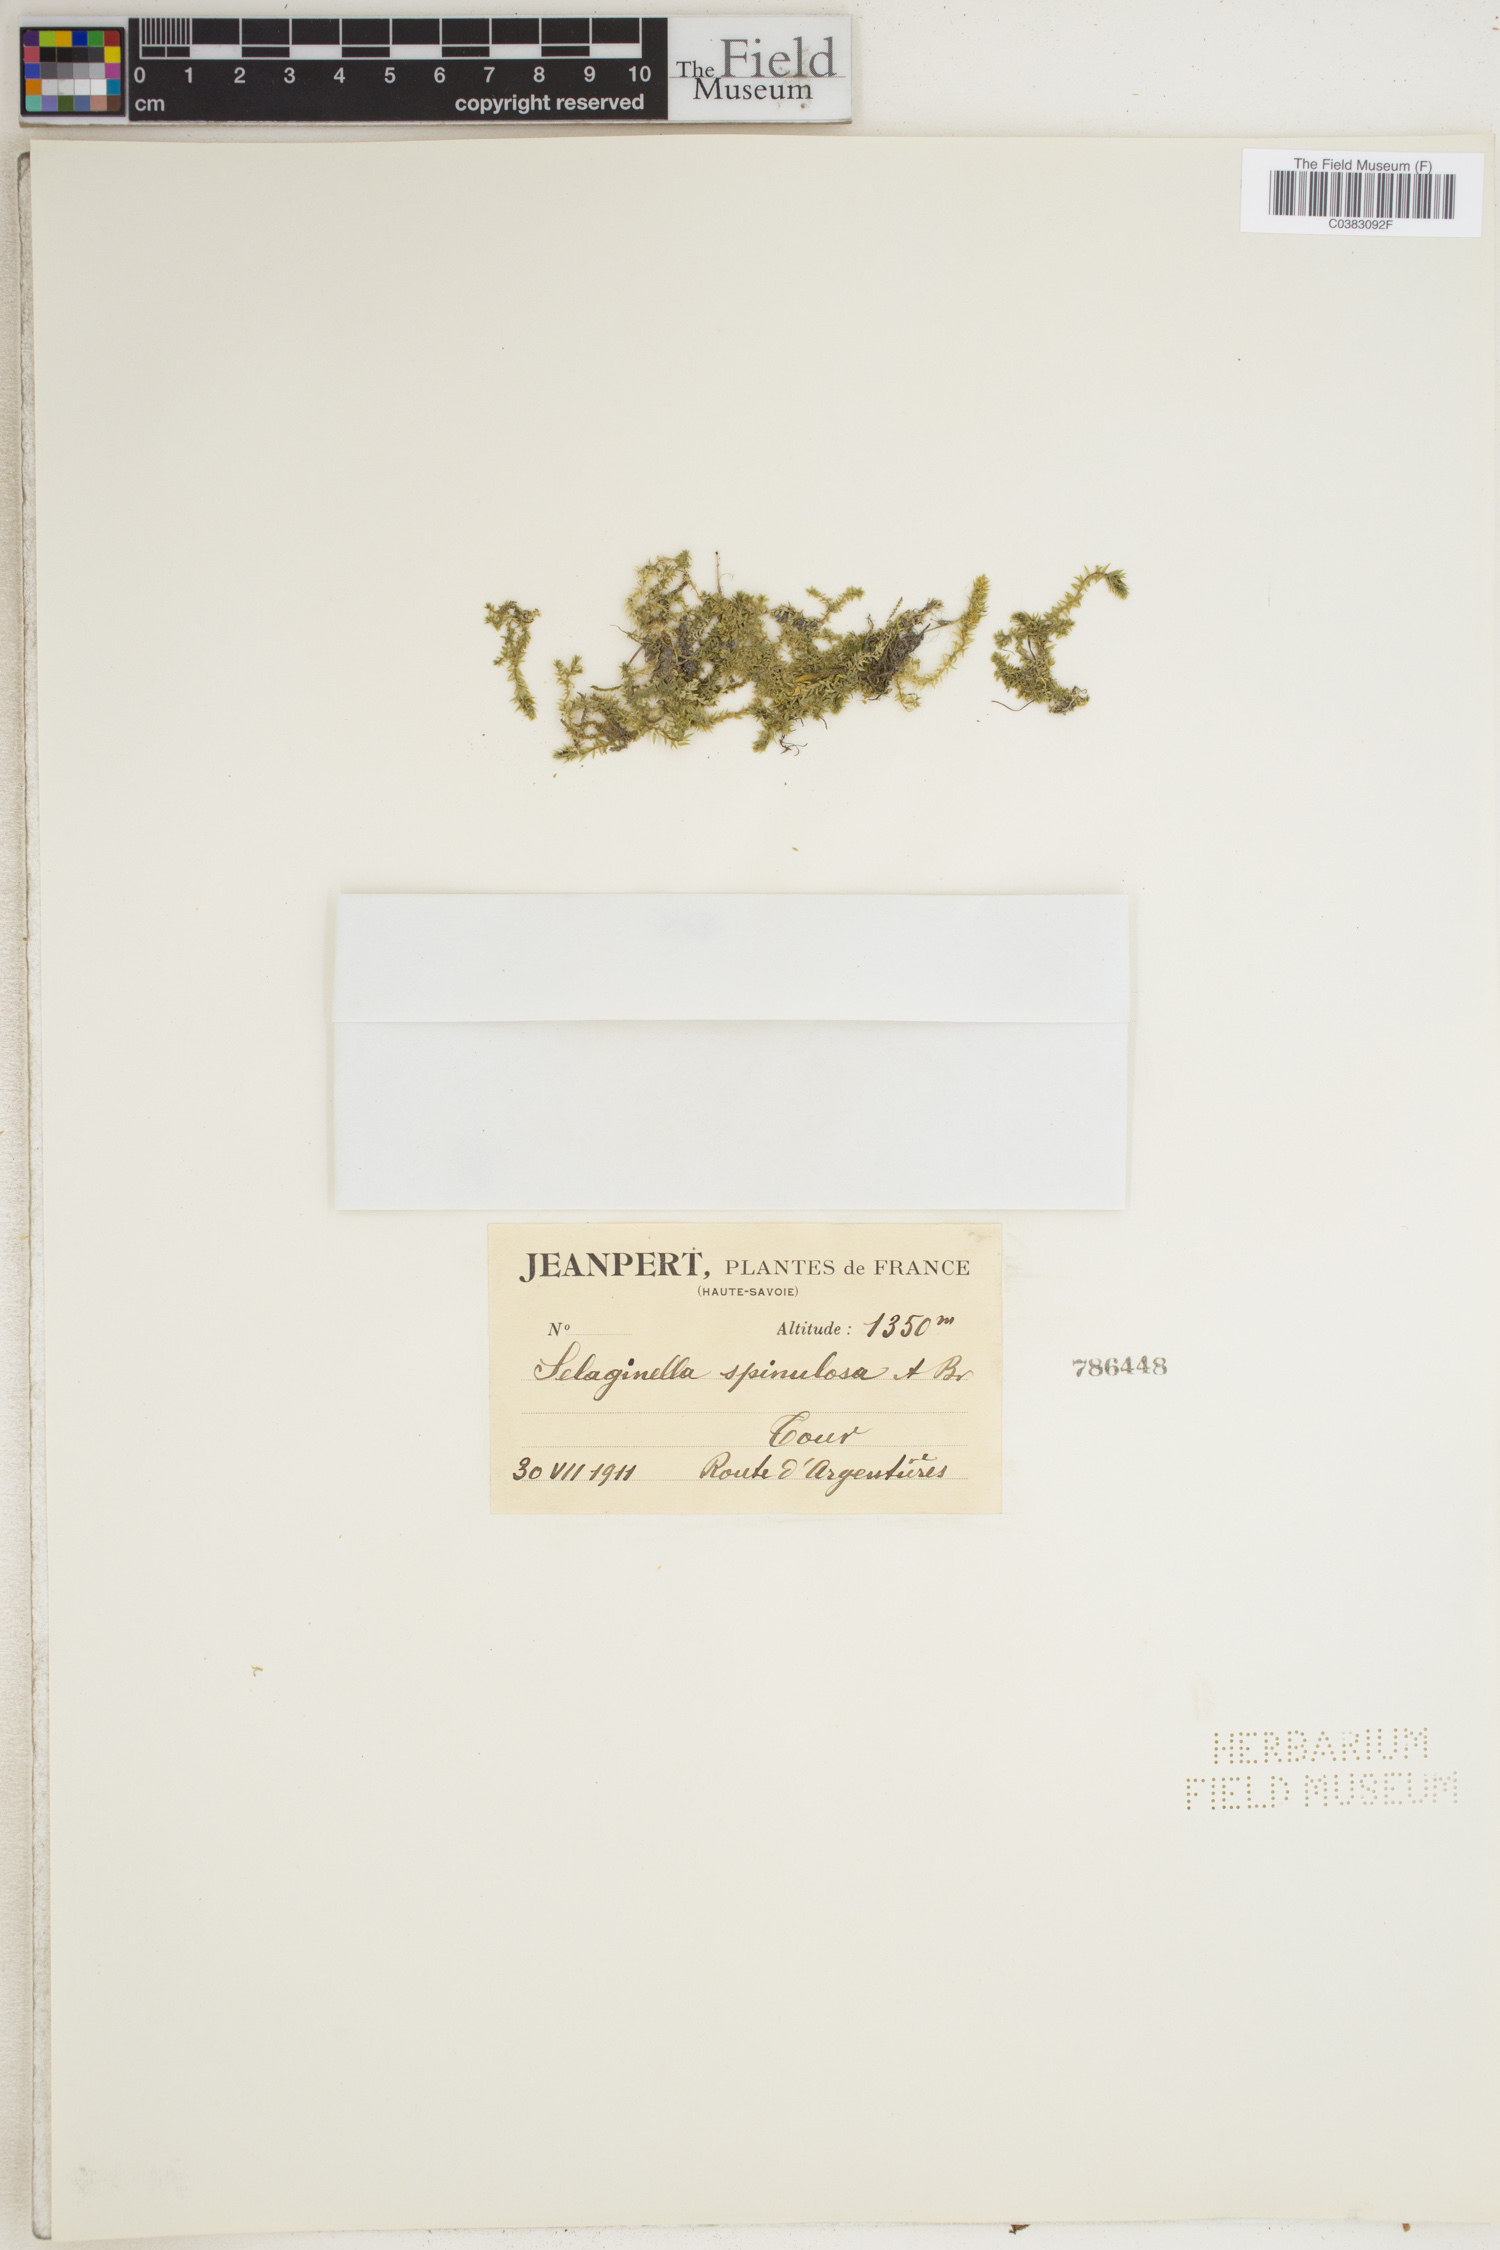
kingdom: Plantae
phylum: Tracheophyta
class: Lycopodiopsida
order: Selaginellales
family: Selaginellaceae
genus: Selaginella
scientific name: Selaginella selaginoides
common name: Prickly mountain-moss
